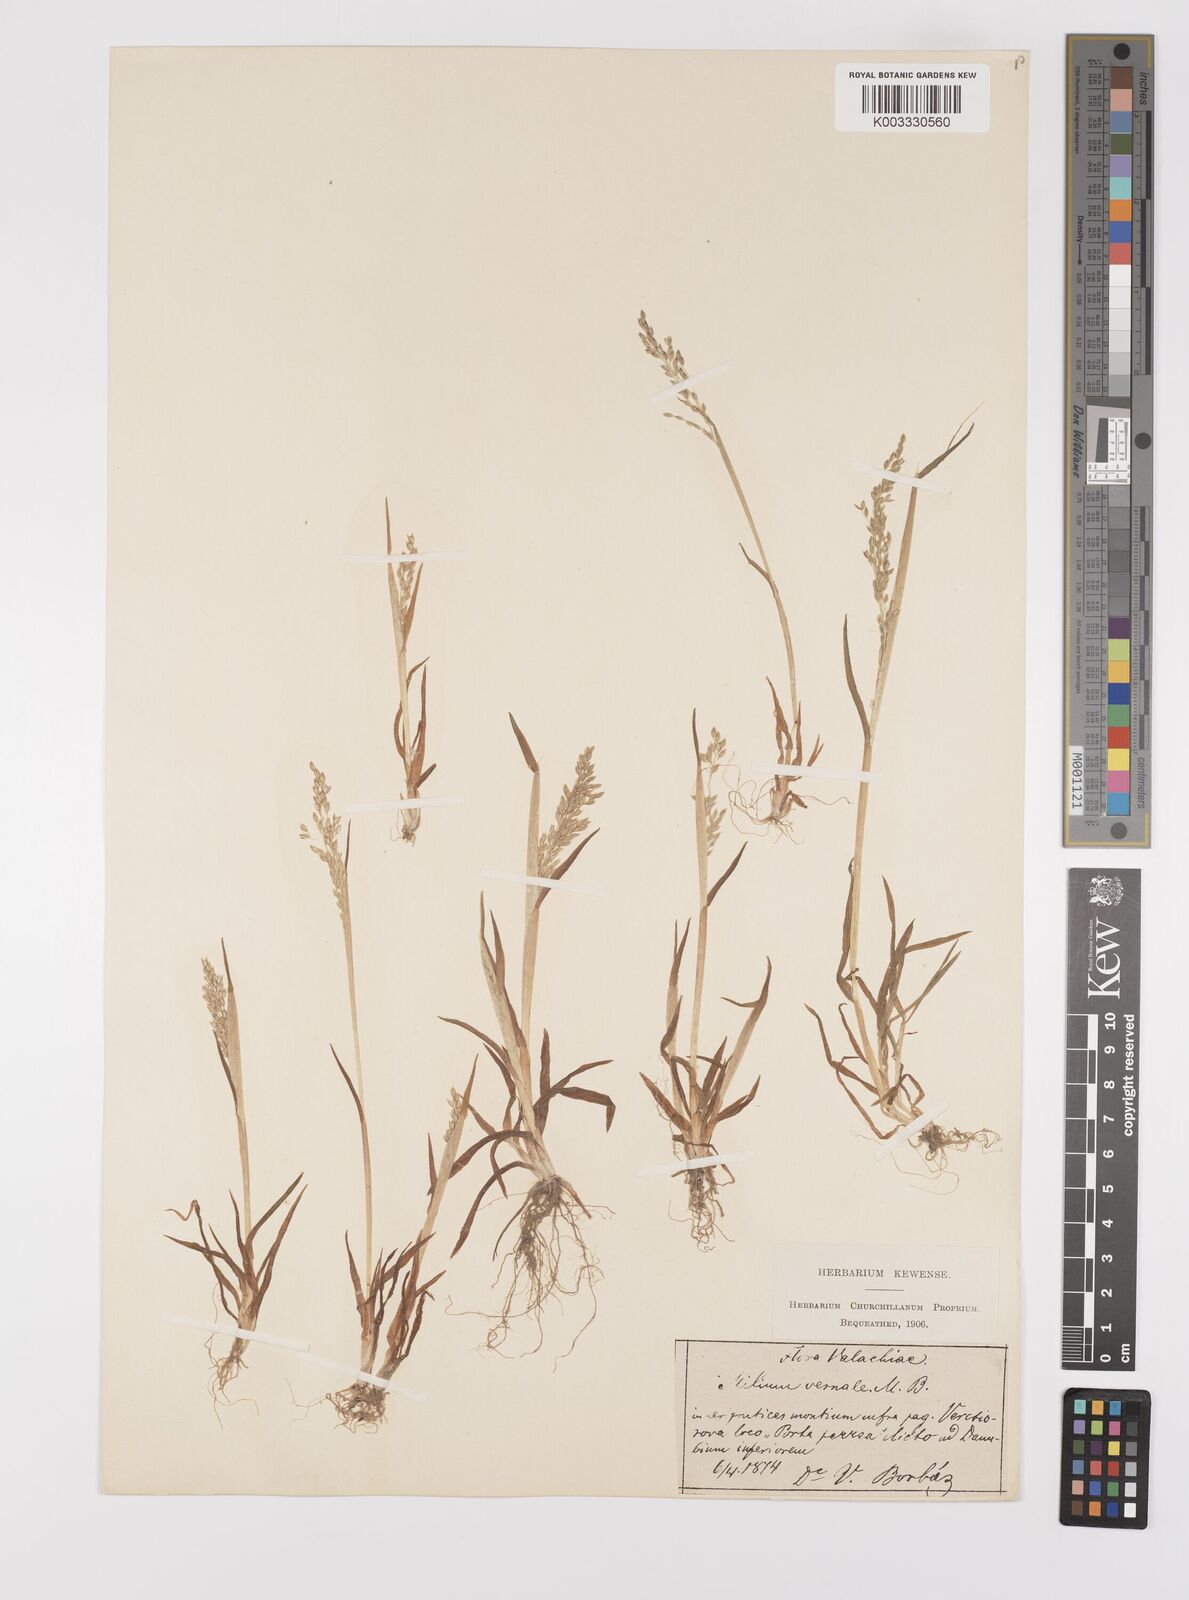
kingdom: Plantae
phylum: Tracheophyta
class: Liliopsida
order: Poales
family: Poaceae
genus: Milium
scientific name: Milium vernale
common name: Early millet
